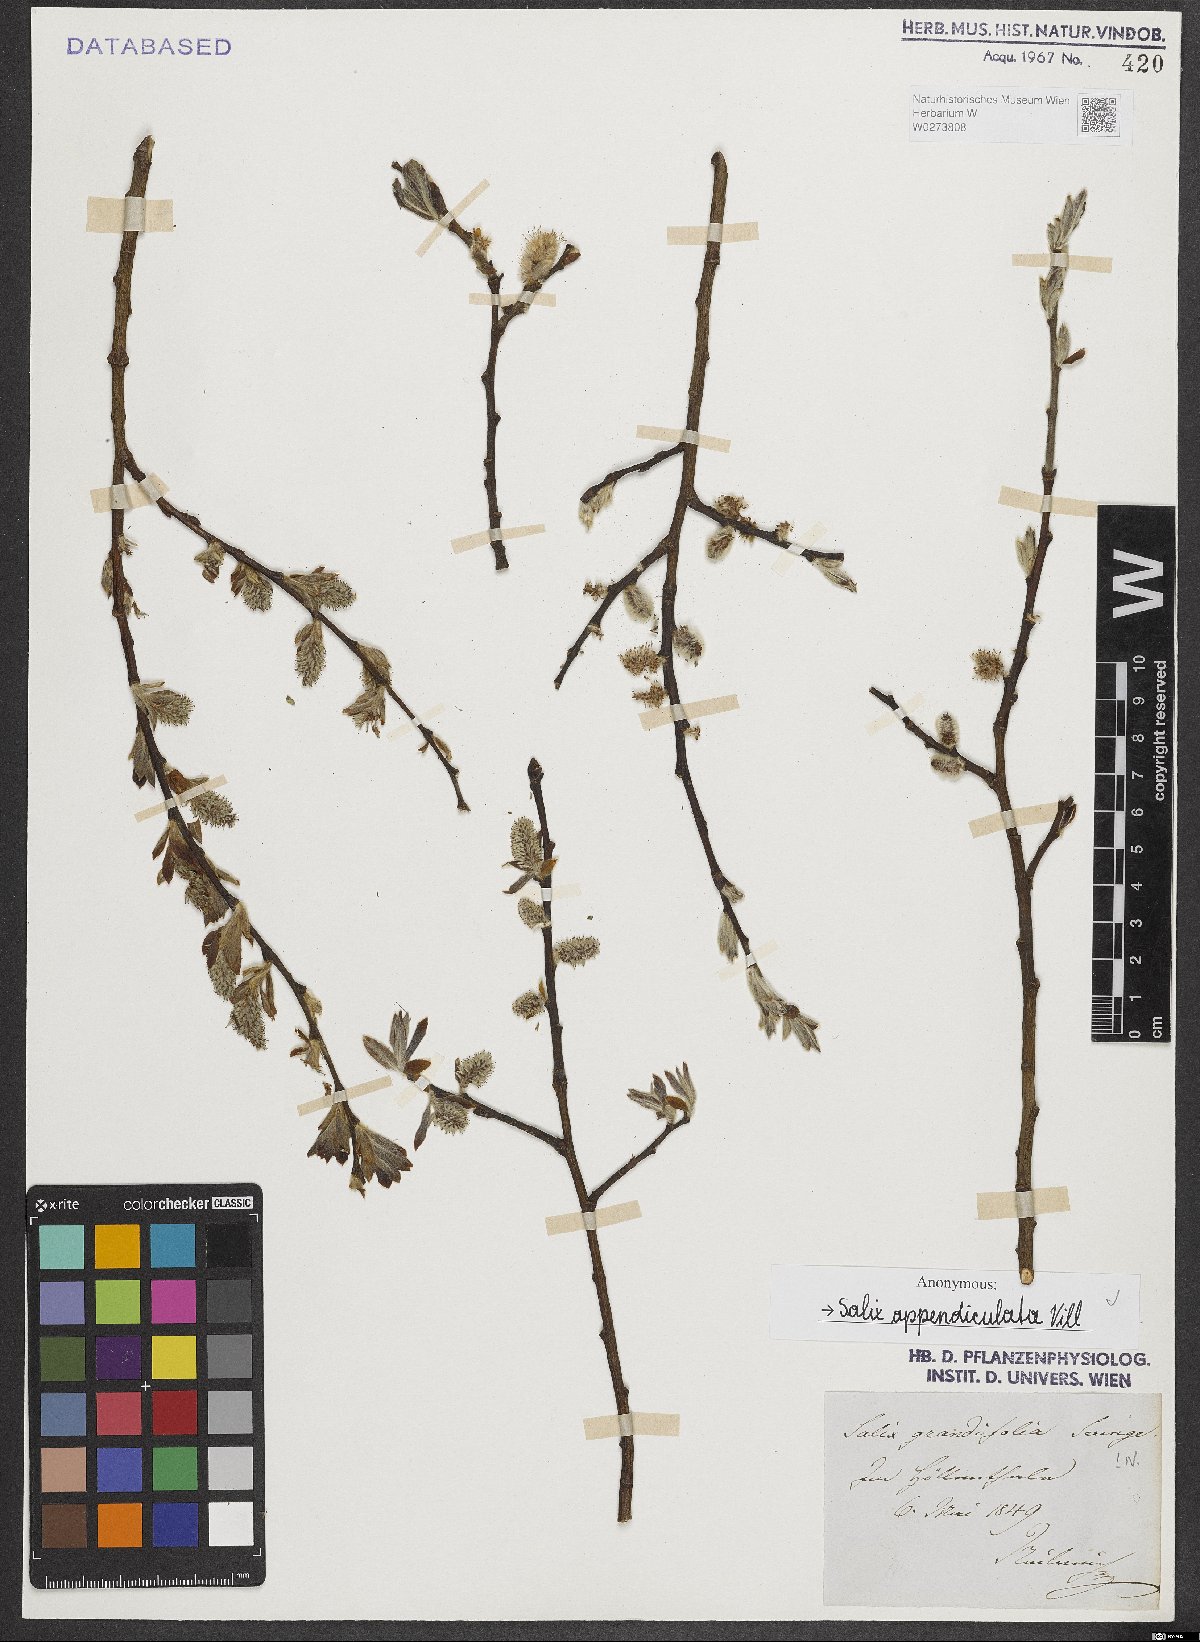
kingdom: Plantae
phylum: Tracheophyta
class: Magnoliopsida
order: Malpighiales
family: Salicaceae
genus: Salix
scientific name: Salix appendiculata
